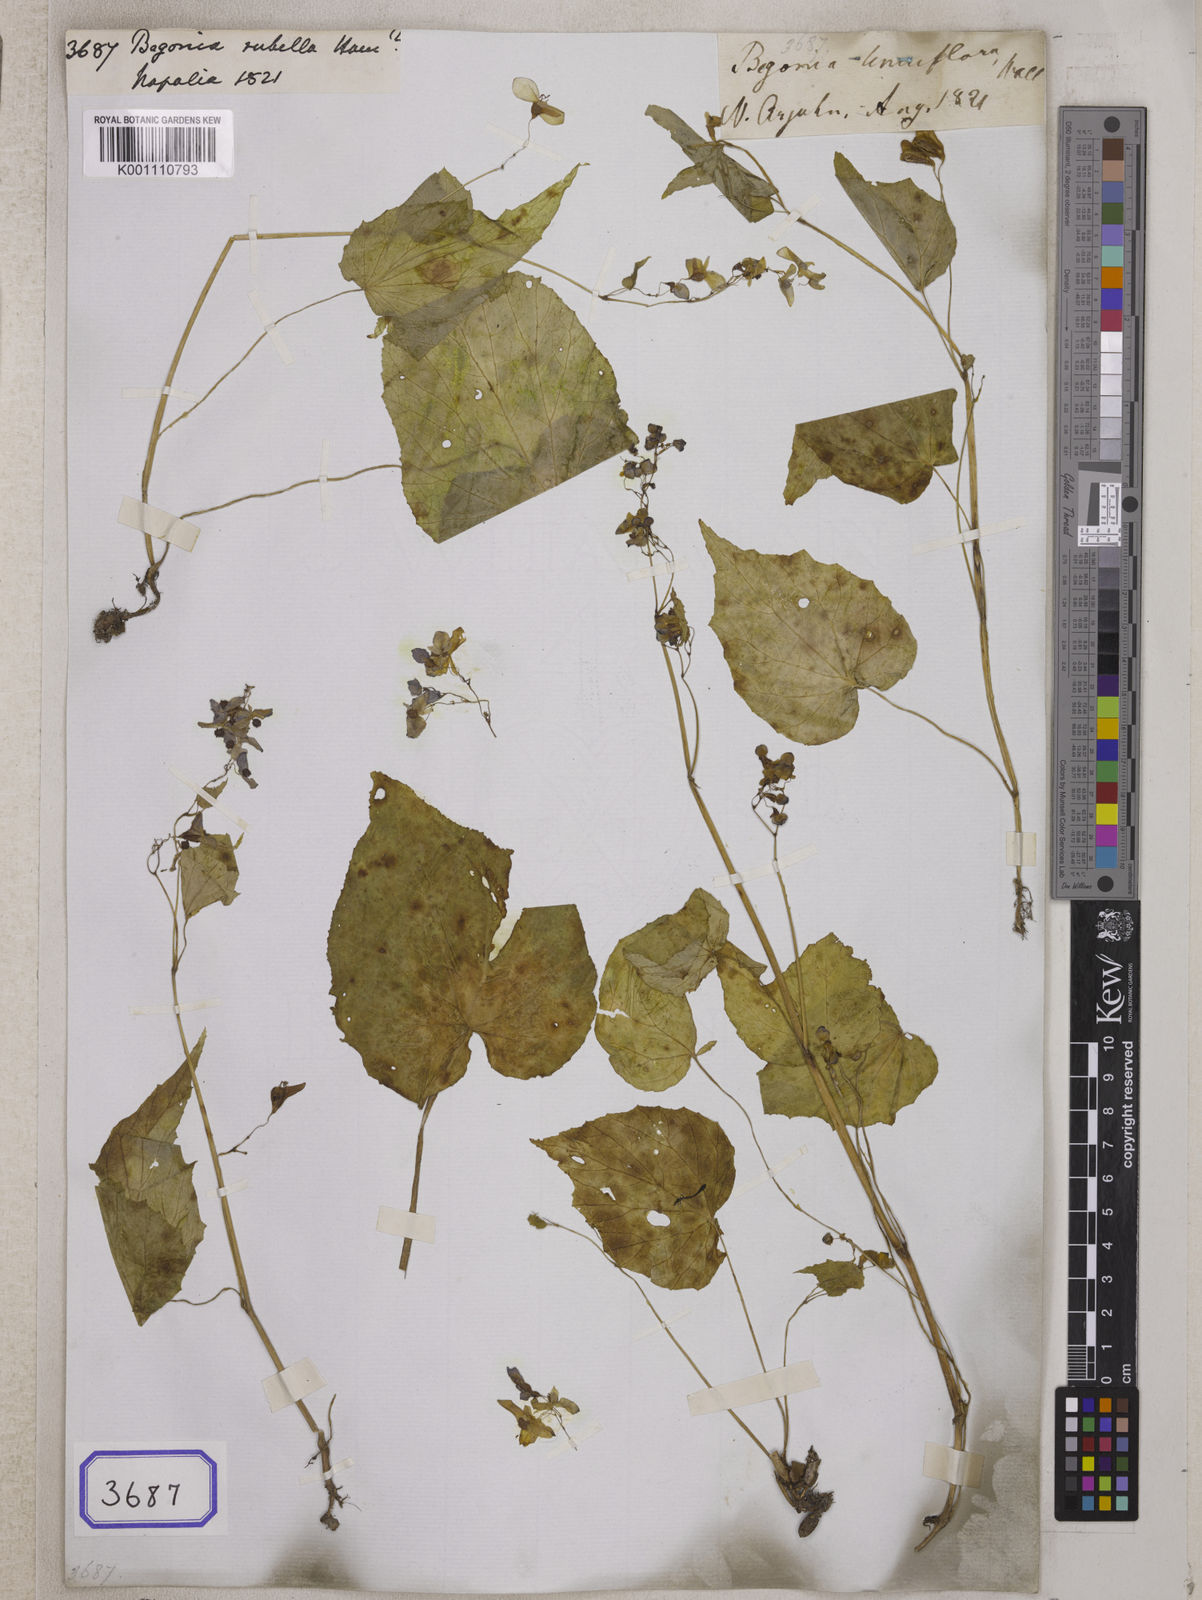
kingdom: Plantae
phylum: Tracheophyta
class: Magnoliopsida
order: Cucurbitales
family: Begoniaceae
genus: Begonia
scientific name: Begonia
